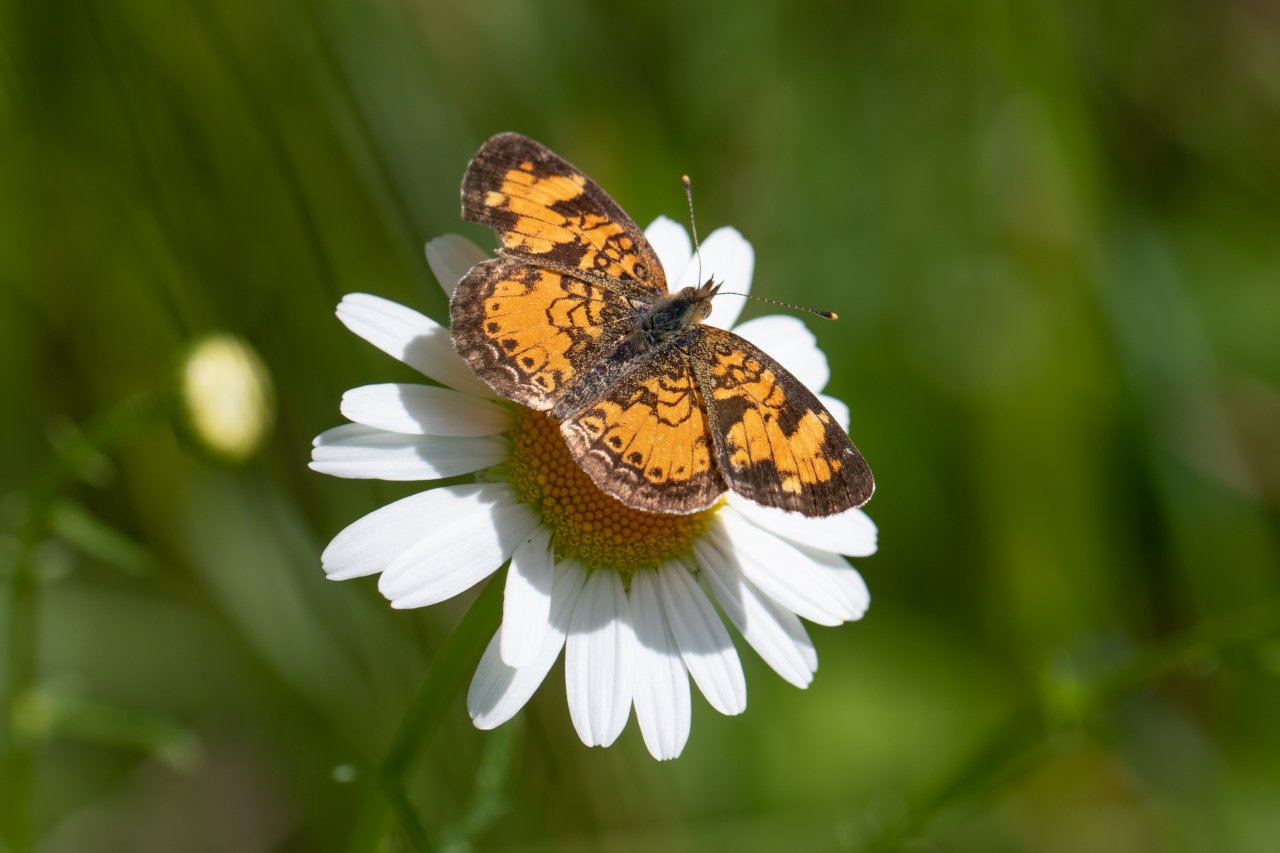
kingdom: Animalia
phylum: Arthropoda
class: Insecta
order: Lepidoptera
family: Nymphalidae
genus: Phyciodes
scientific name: Phyciodes
